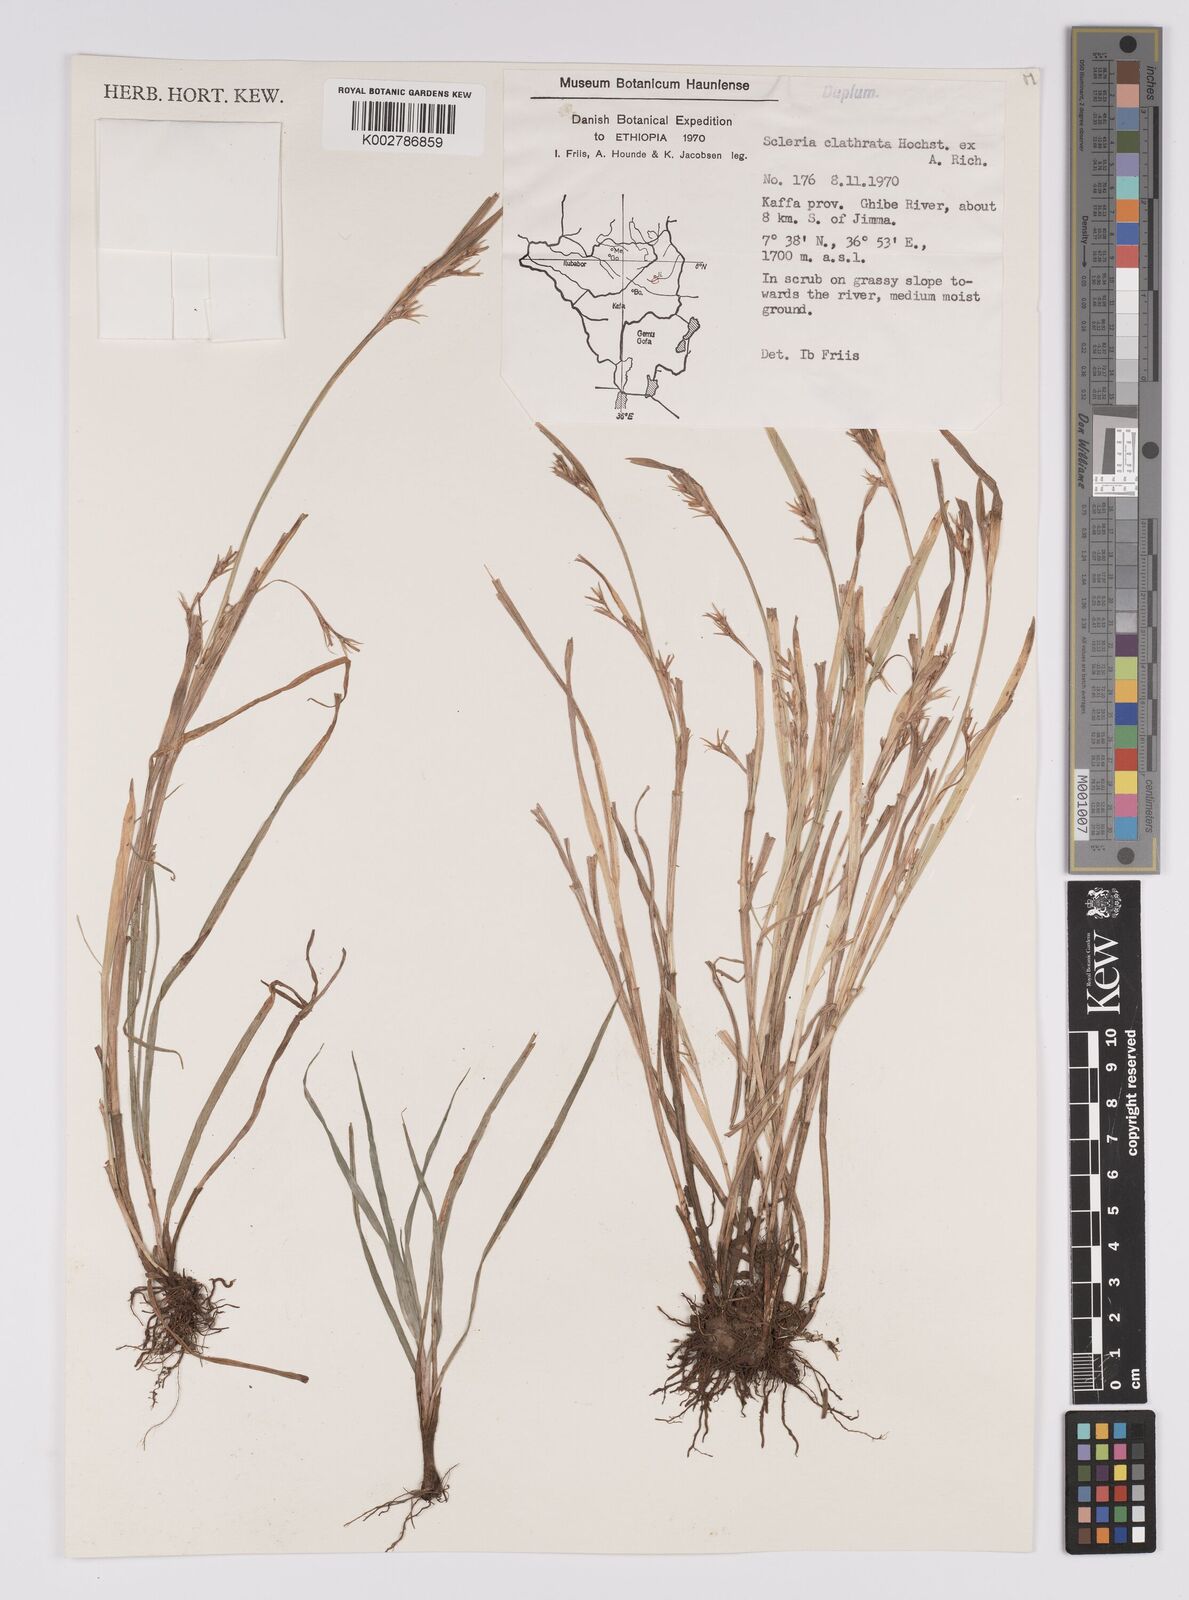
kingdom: Plantae
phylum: Tracheophyta
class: Liliopsida
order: Poales
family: Cyperaceae
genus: Scleria
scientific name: Scleria clathrata
